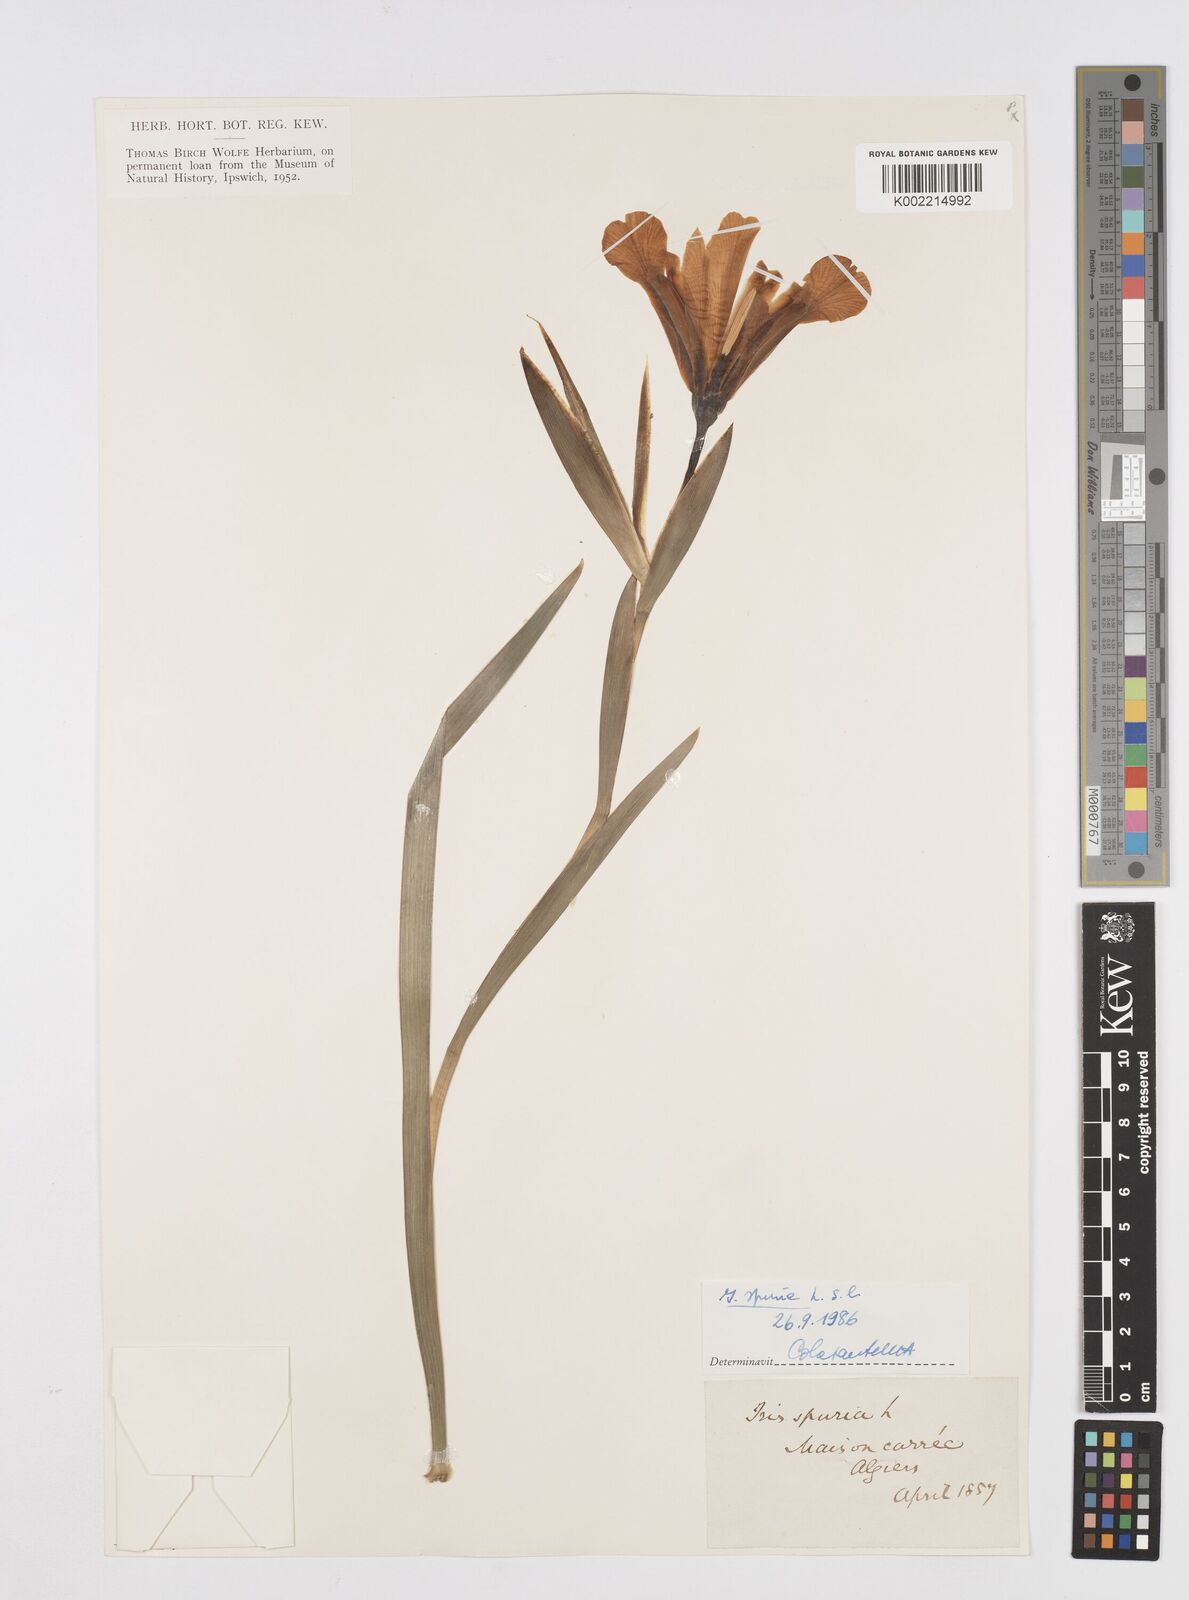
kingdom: Plantae
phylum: Tracheophyta
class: Liliopsida
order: Asparagales
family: Iridaceae
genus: Iris
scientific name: Iris spuria
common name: Blue iris
